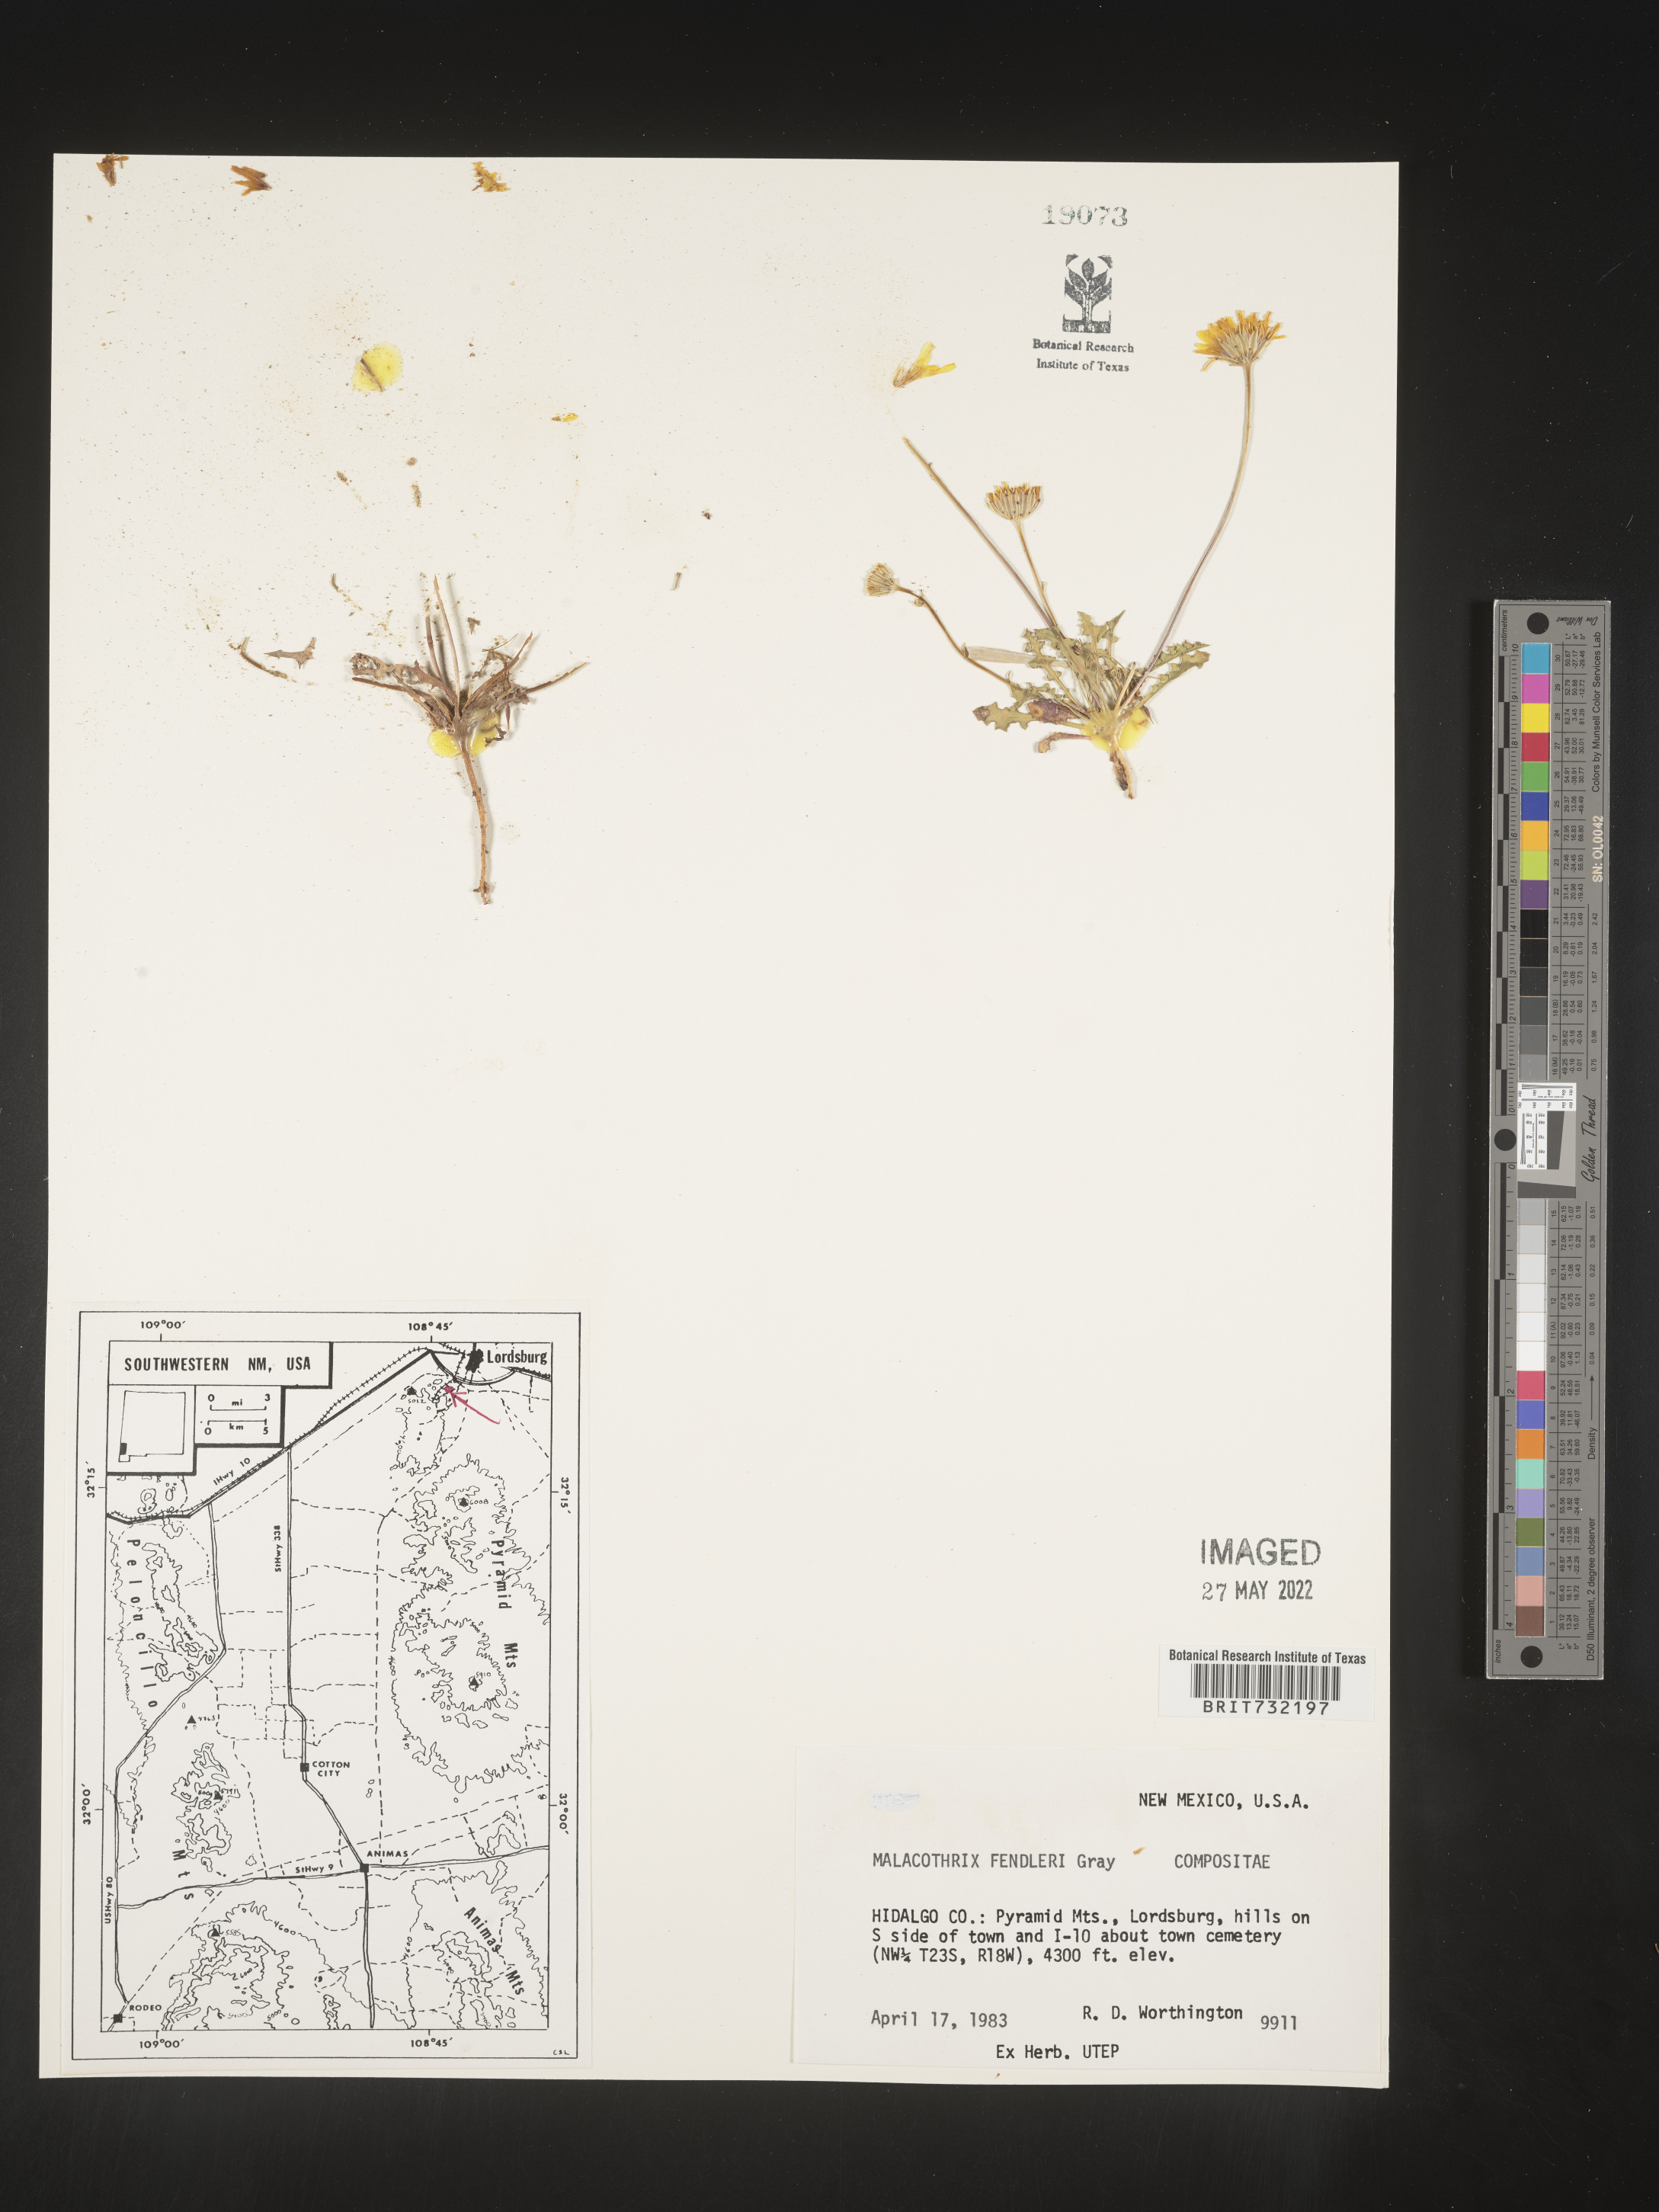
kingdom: Plantae
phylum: Tracheophyta
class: Magnoliopsida
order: Asterales
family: Asteraceae
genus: Malacothrix
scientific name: Malacothrix
